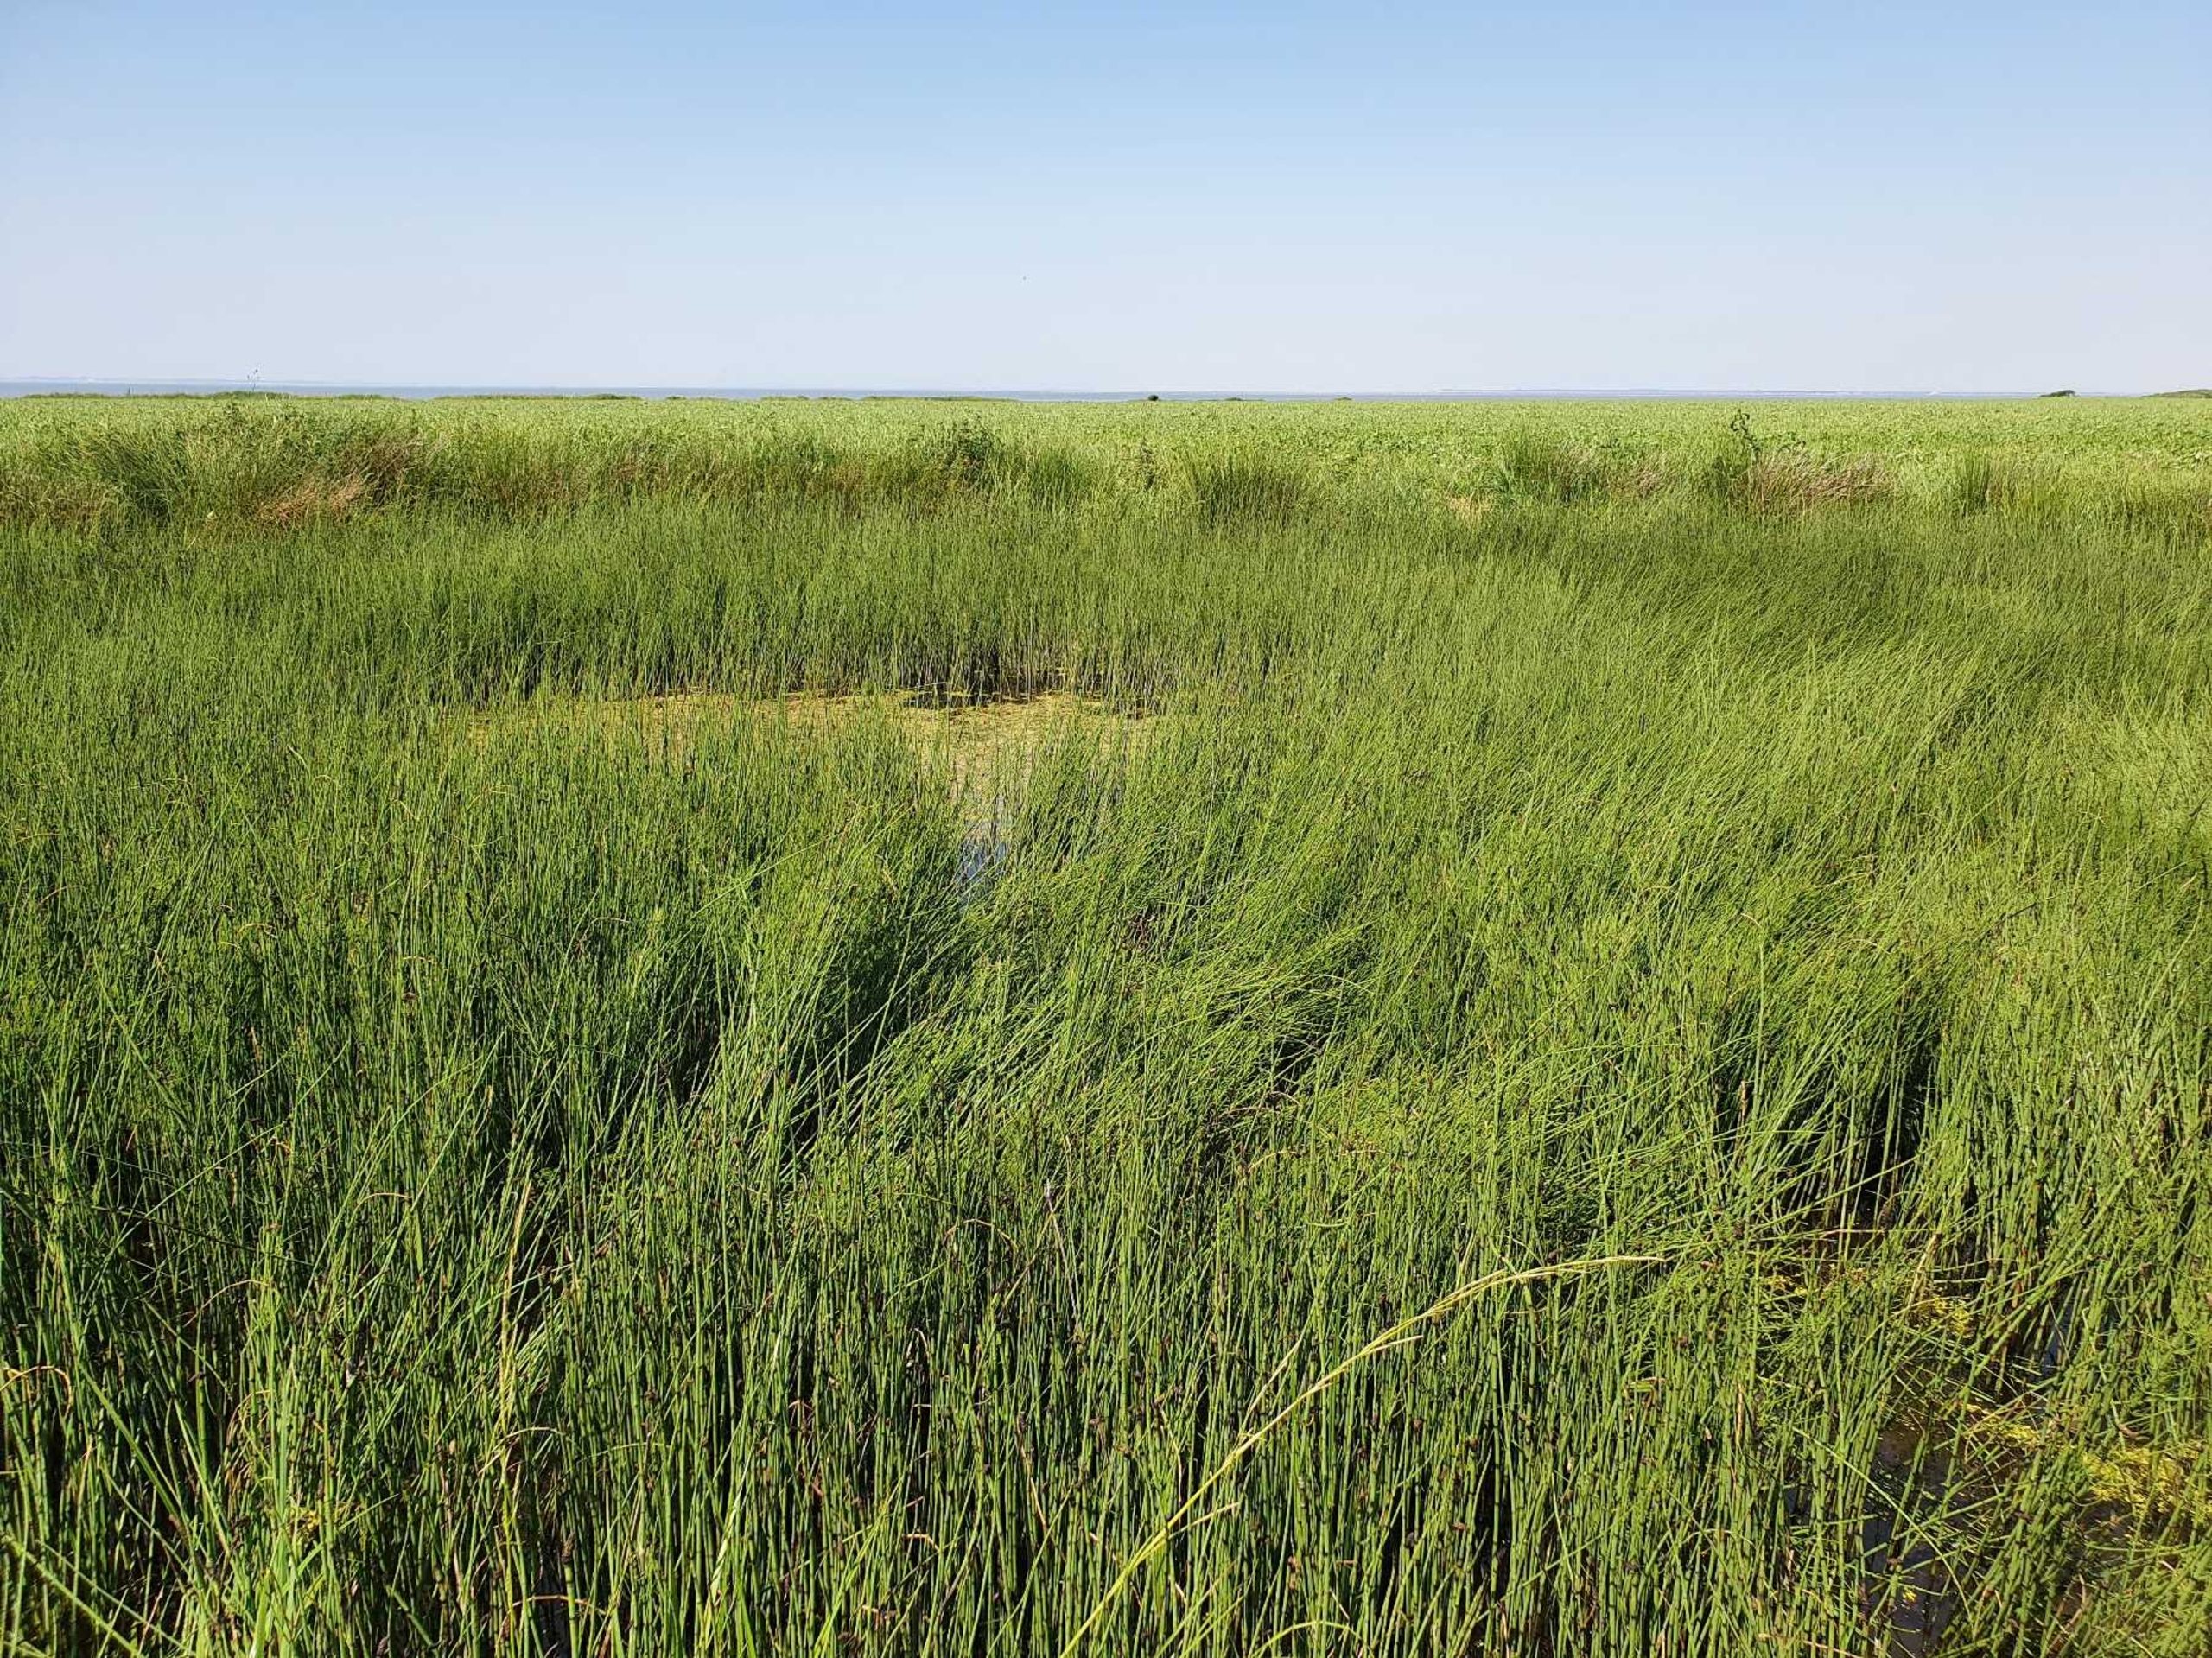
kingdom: Plantae
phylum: Tracheophyta
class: Polypodiopsida
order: Equisetales
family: Equisetaceae
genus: Equisetum
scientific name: Equisetum fluviatile
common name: Dynd-padderok
